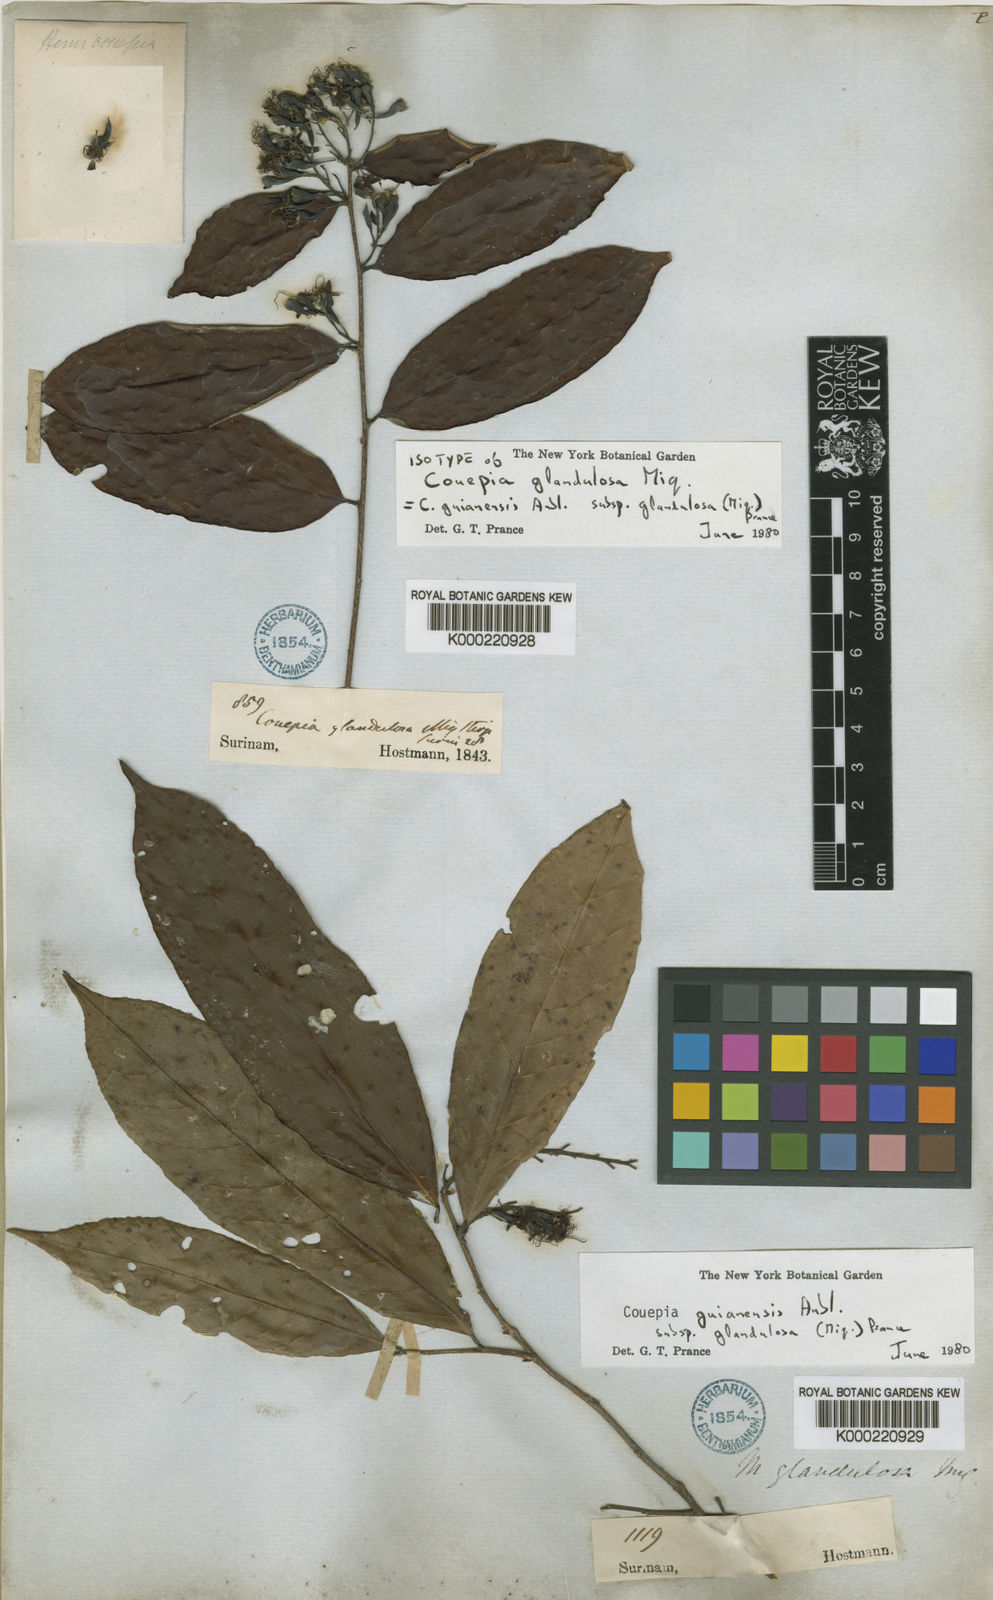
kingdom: Plantae
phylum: Tracheophyta
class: Magnoliopsida
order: Malpighiales
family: Chrysobalanaceae
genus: Couepia
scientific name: Couepia guianensis
